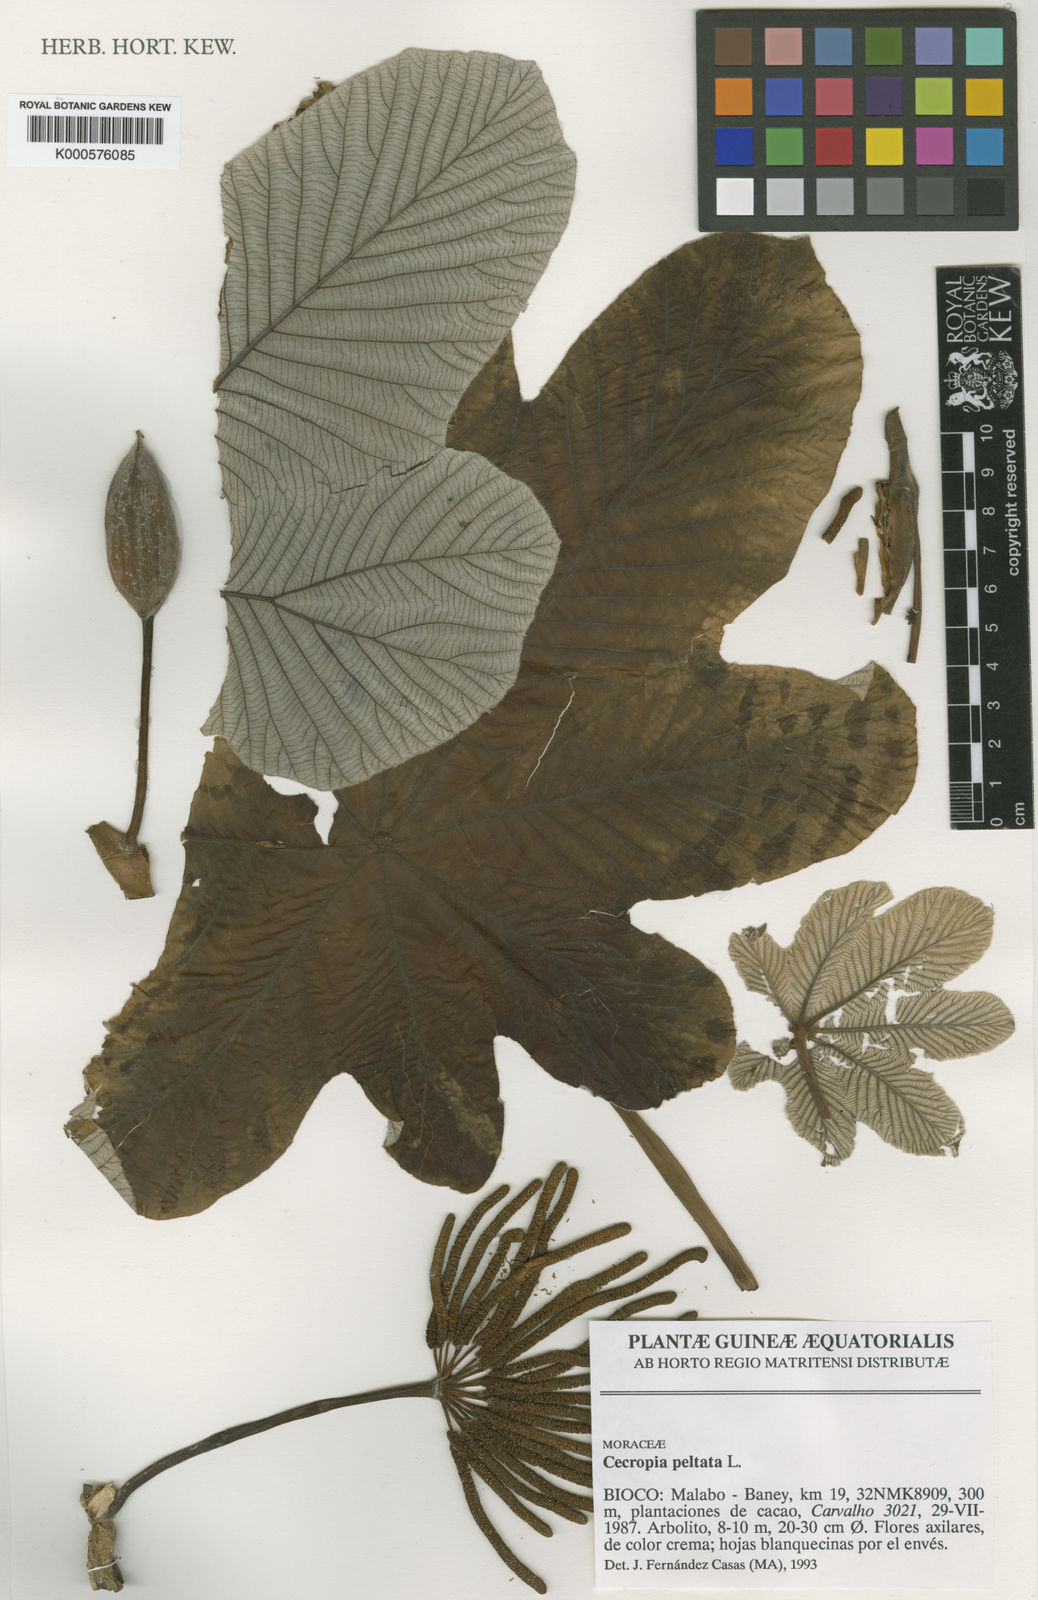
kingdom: Plantae
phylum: Tracheophyta
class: Magnoliopsida
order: Rosales
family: Urticaceae
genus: Cecropia
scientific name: Cecropia peltata
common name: Trumpet-tree
